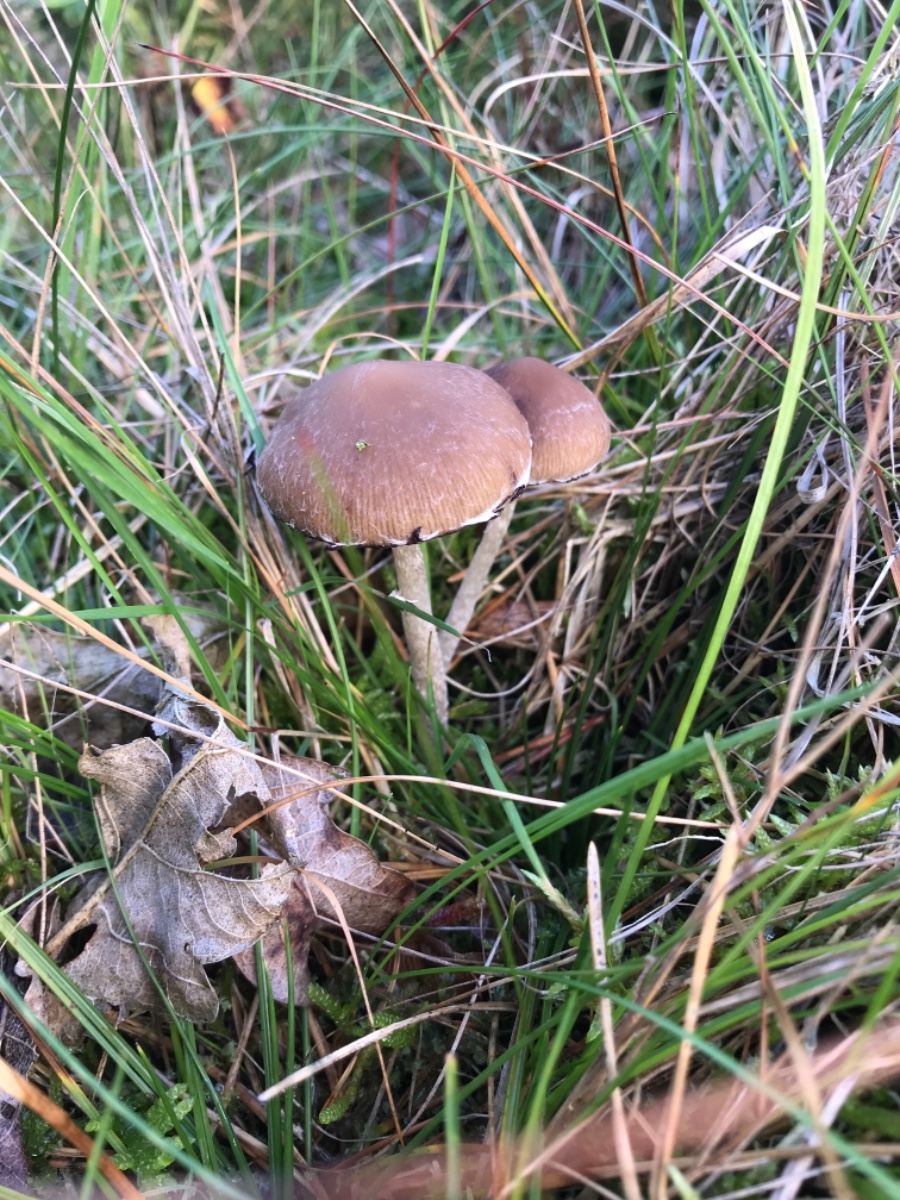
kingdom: Fungi
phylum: Basidiomycota
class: Agaricomycetes
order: Agaricales
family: Psathyrellaceae
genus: Psathyrella
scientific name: Psathyrella
